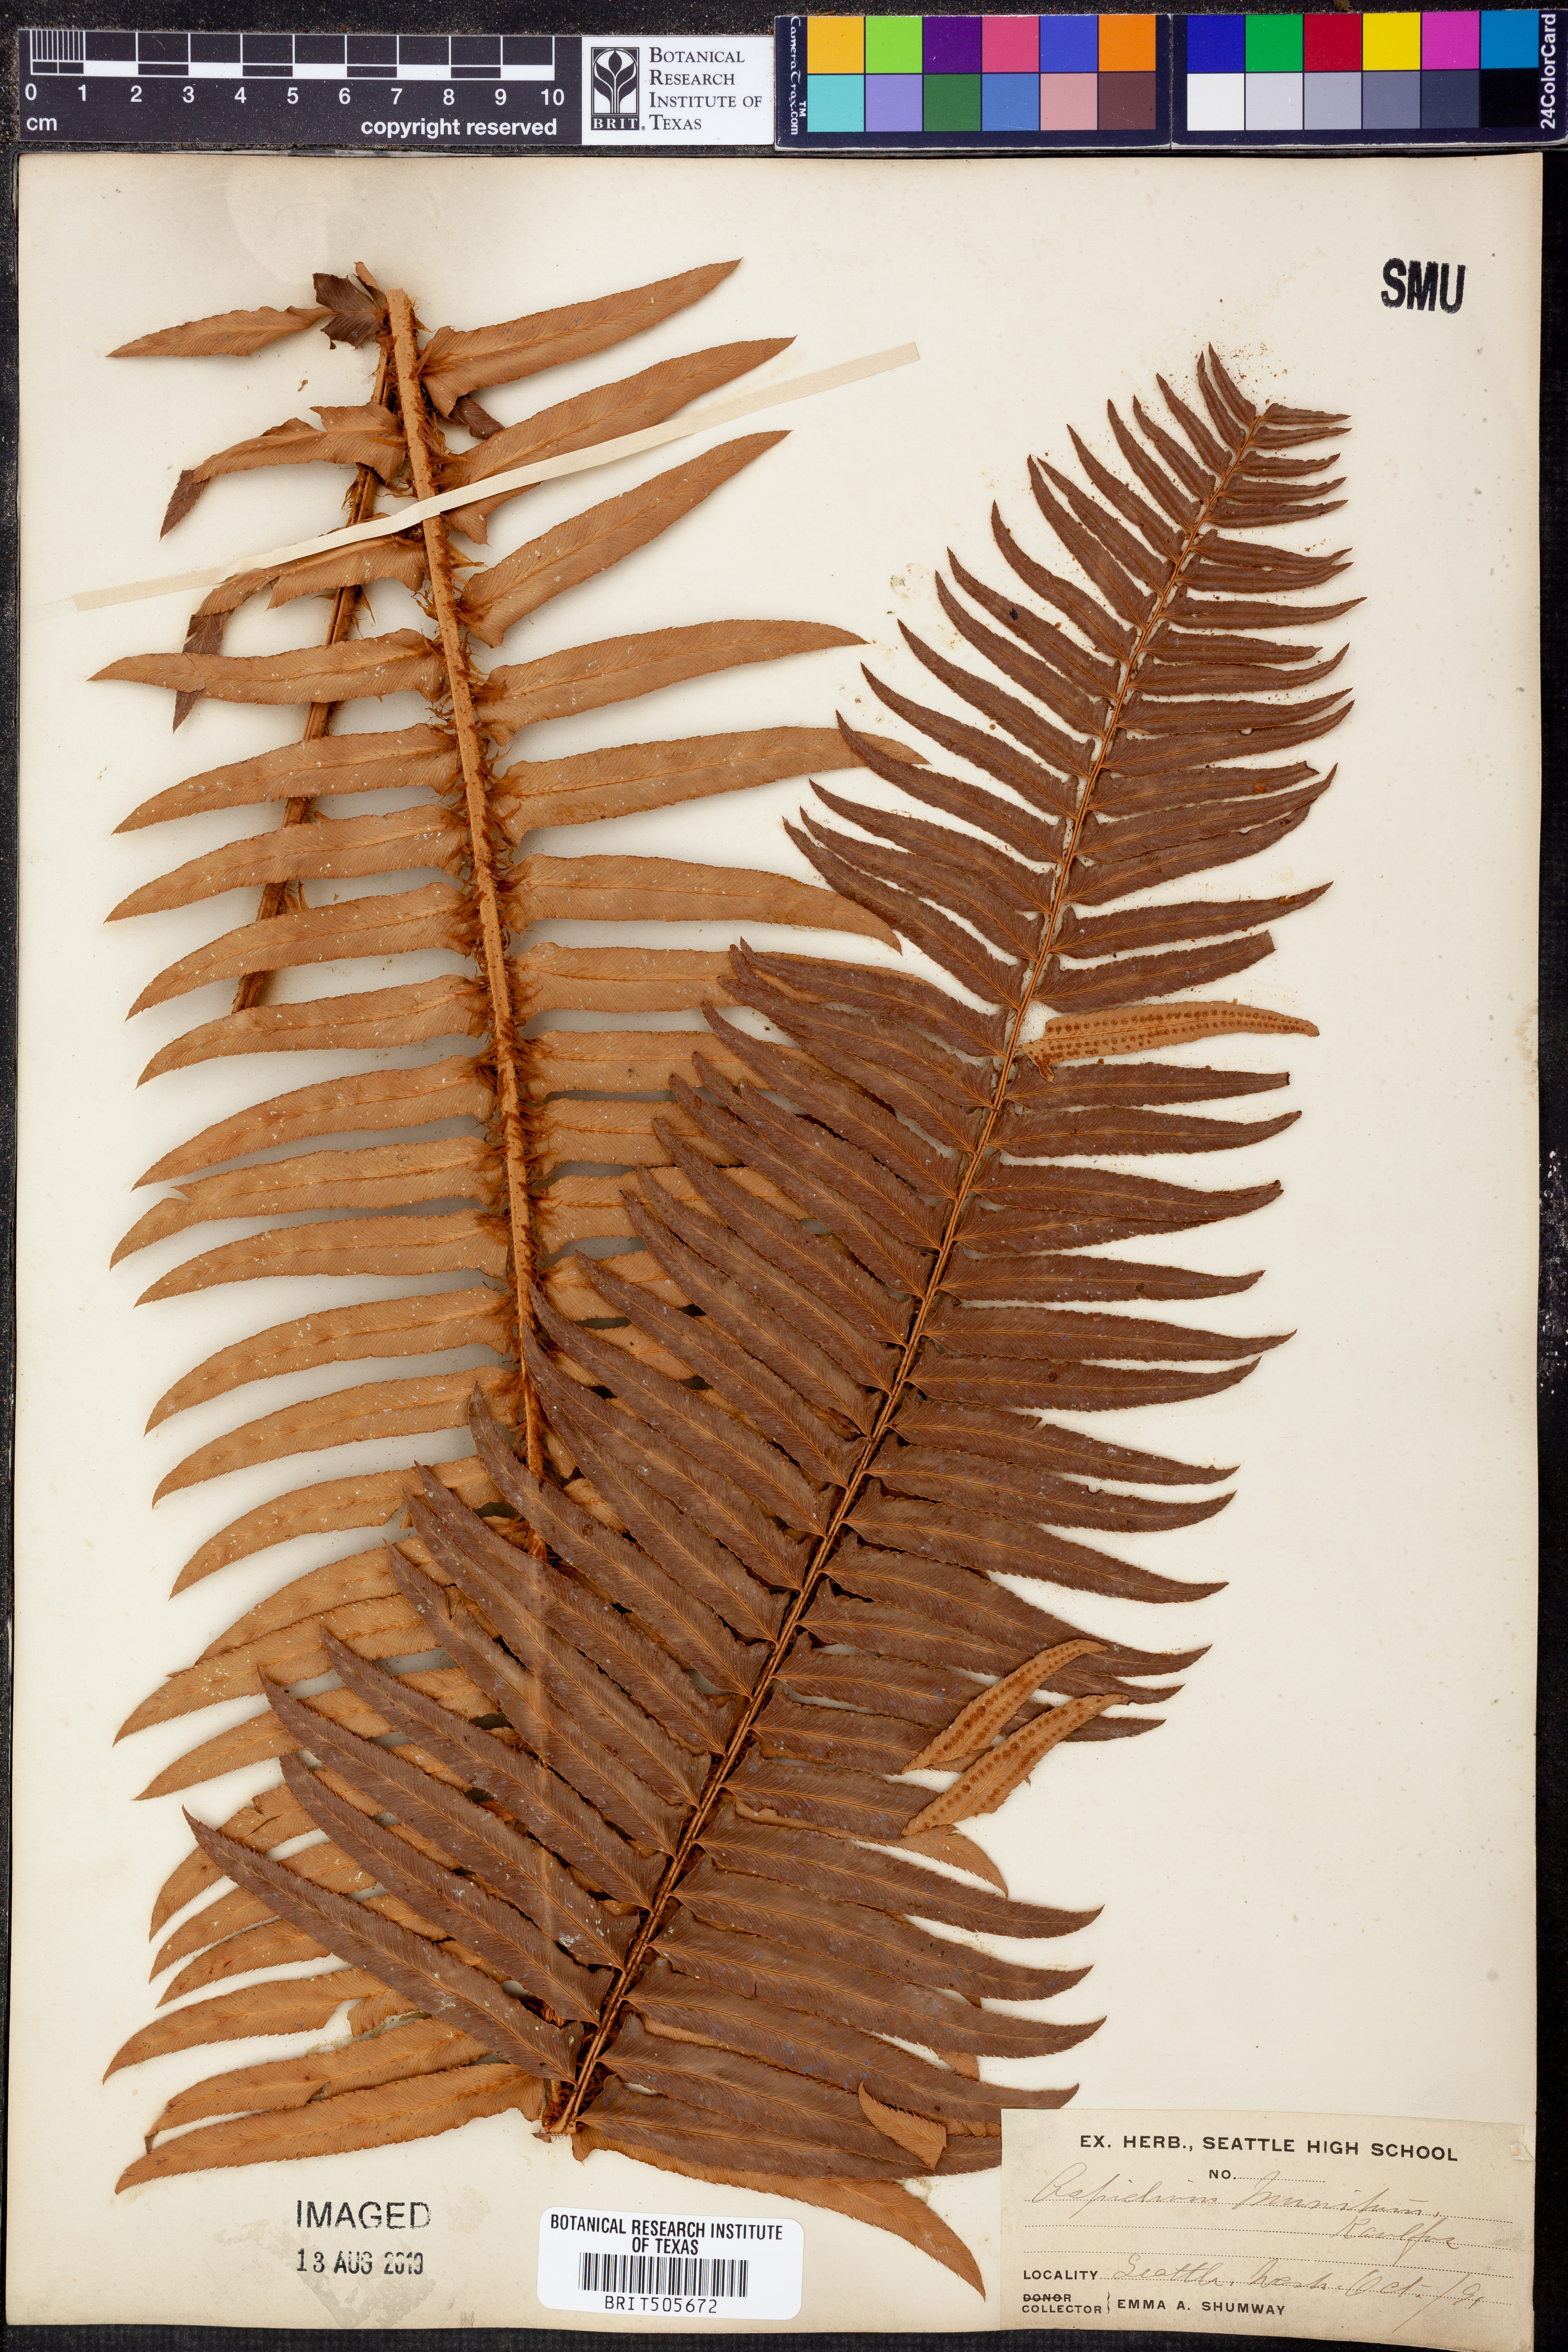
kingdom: Plantae
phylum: Tracheophyta
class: Polypodiopsida
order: Polypodiales
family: Dryopteridaceae
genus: Polystichum
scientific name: Polystichum munitum
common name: Western sword-fern
